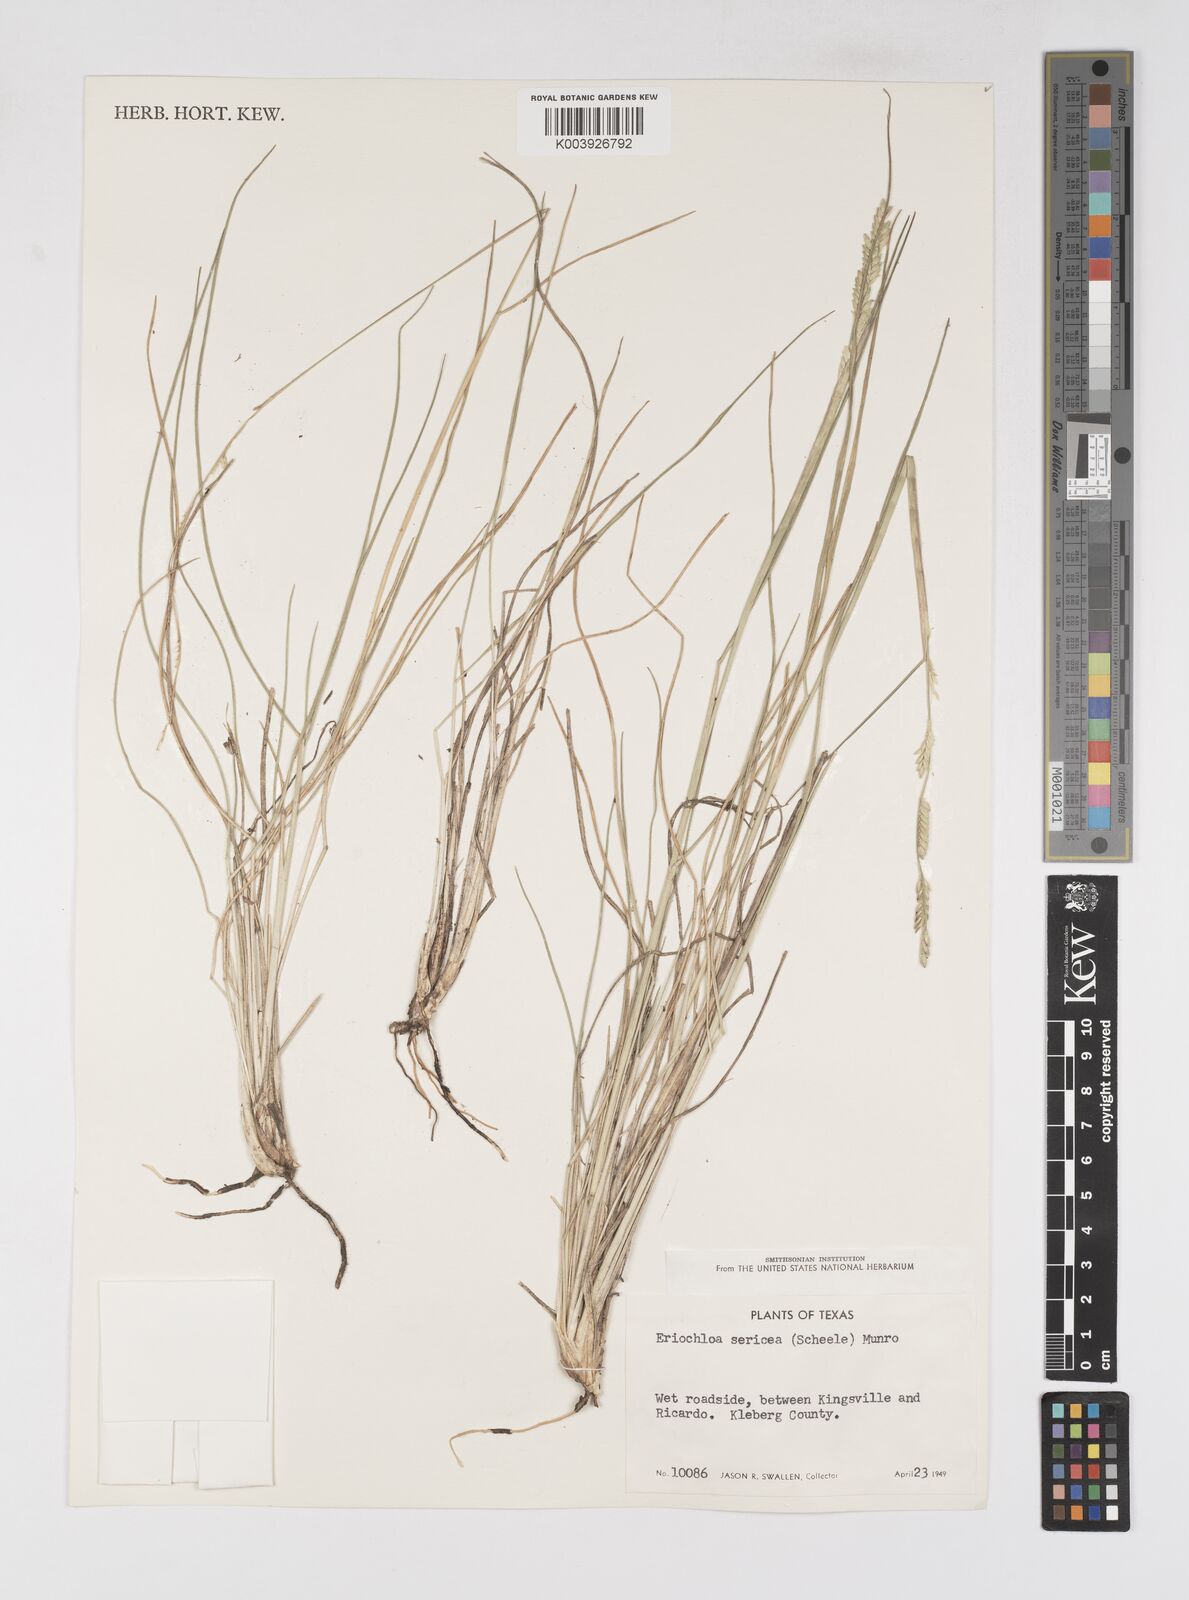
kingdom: Plantae
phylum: Tracheophyta
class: Liliopsida
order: Poales
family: Poaceae
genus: Eriochloa
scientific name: Eriochloa sericea
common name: Texas cup grass
